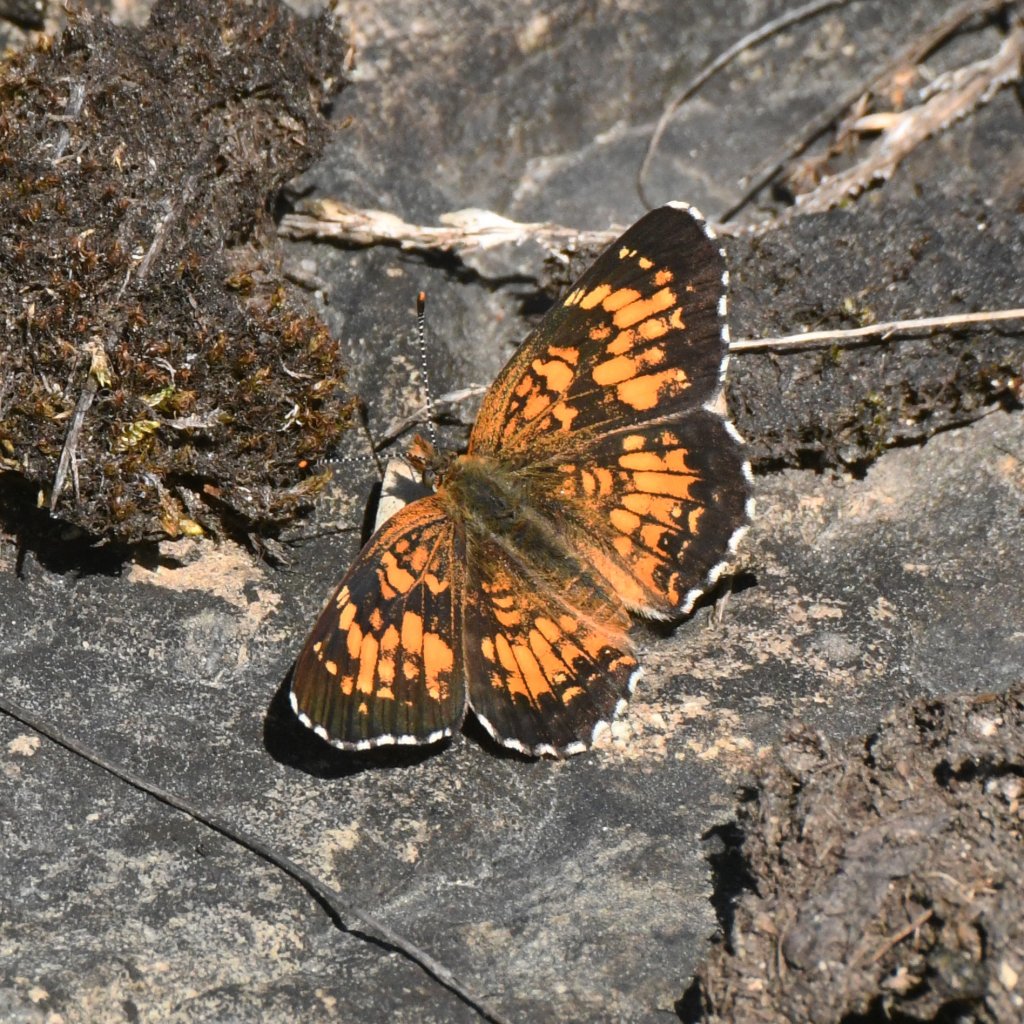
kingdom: Animalia
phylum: Arthropoda
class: Insecta
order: Lepidoptera
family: Nymphalidae
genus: Chlosyne
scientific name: Chlosyne harrisii
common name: Harris's Checkerspot
